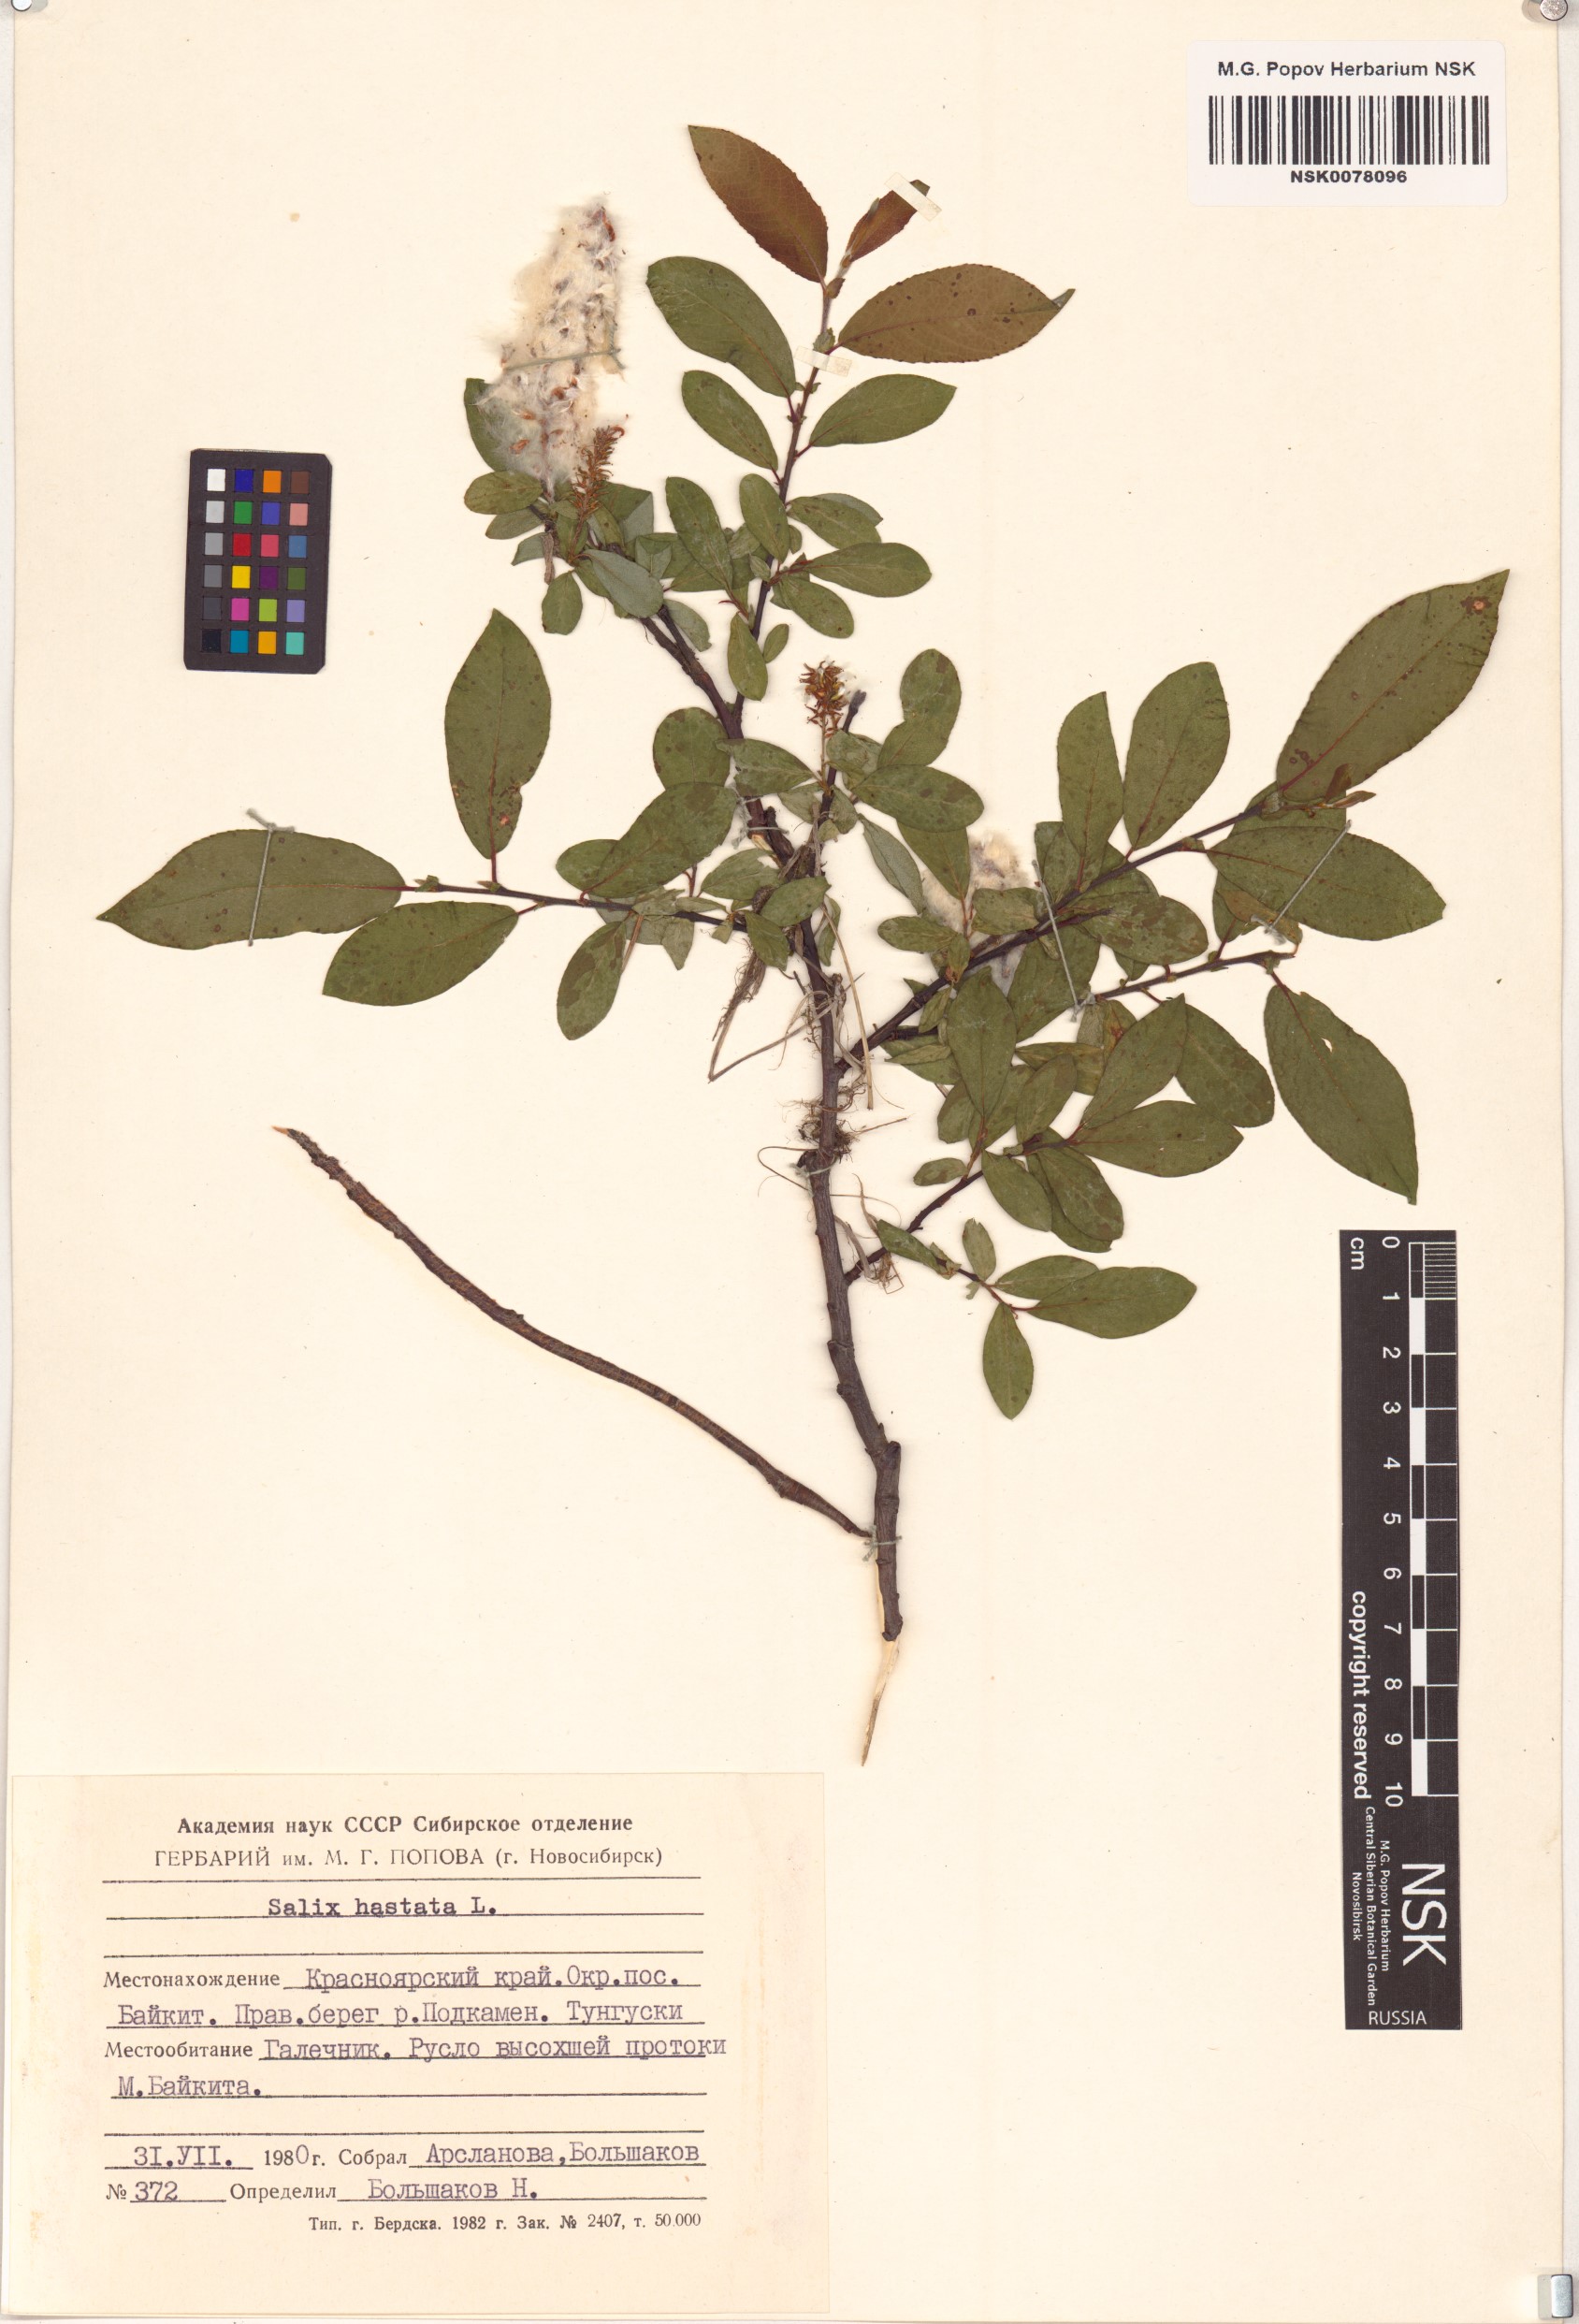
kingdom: Plantae
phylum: Tracheophyta
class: Magnoliopsida
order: Malpighiales
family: Salicaceae
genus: Salix
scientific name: Salix hastata
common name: Halberd willow
